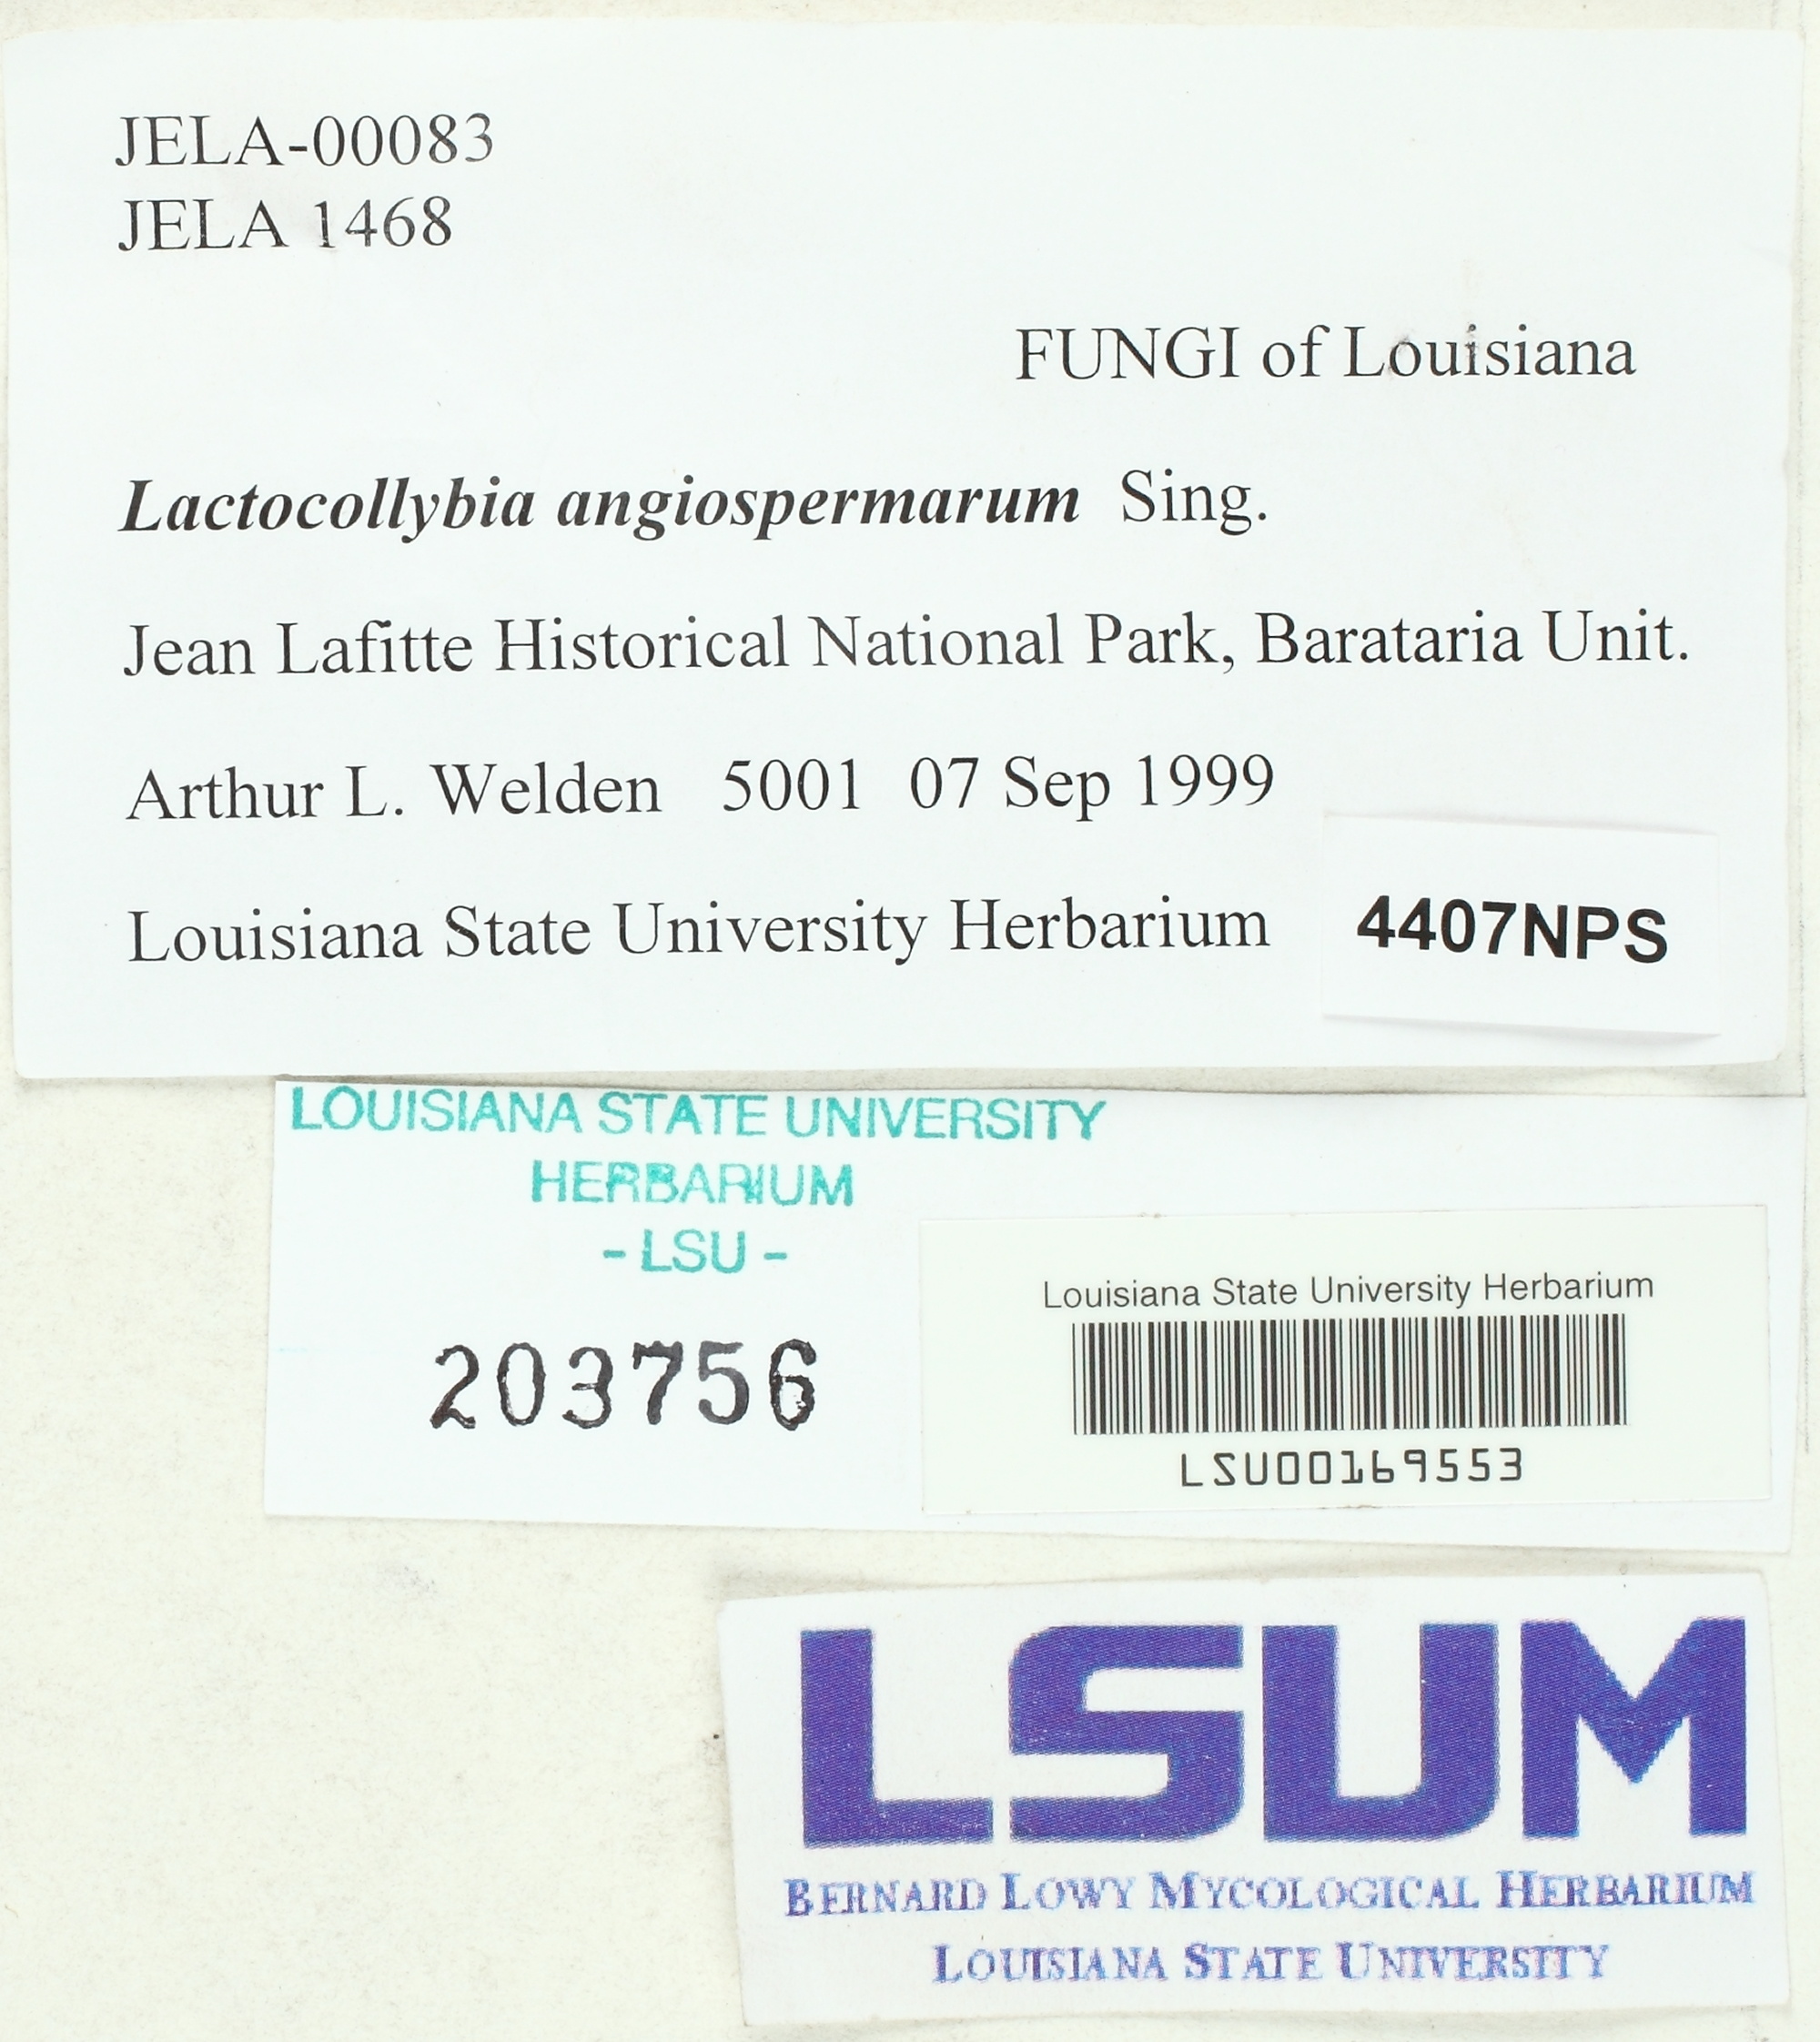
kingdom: Fungi
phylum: Basidiomycota
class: Agaricomycetes
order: Agaricales
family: Marasmiaceae
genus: Lactocollybia
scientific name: Lactocollybia epia
